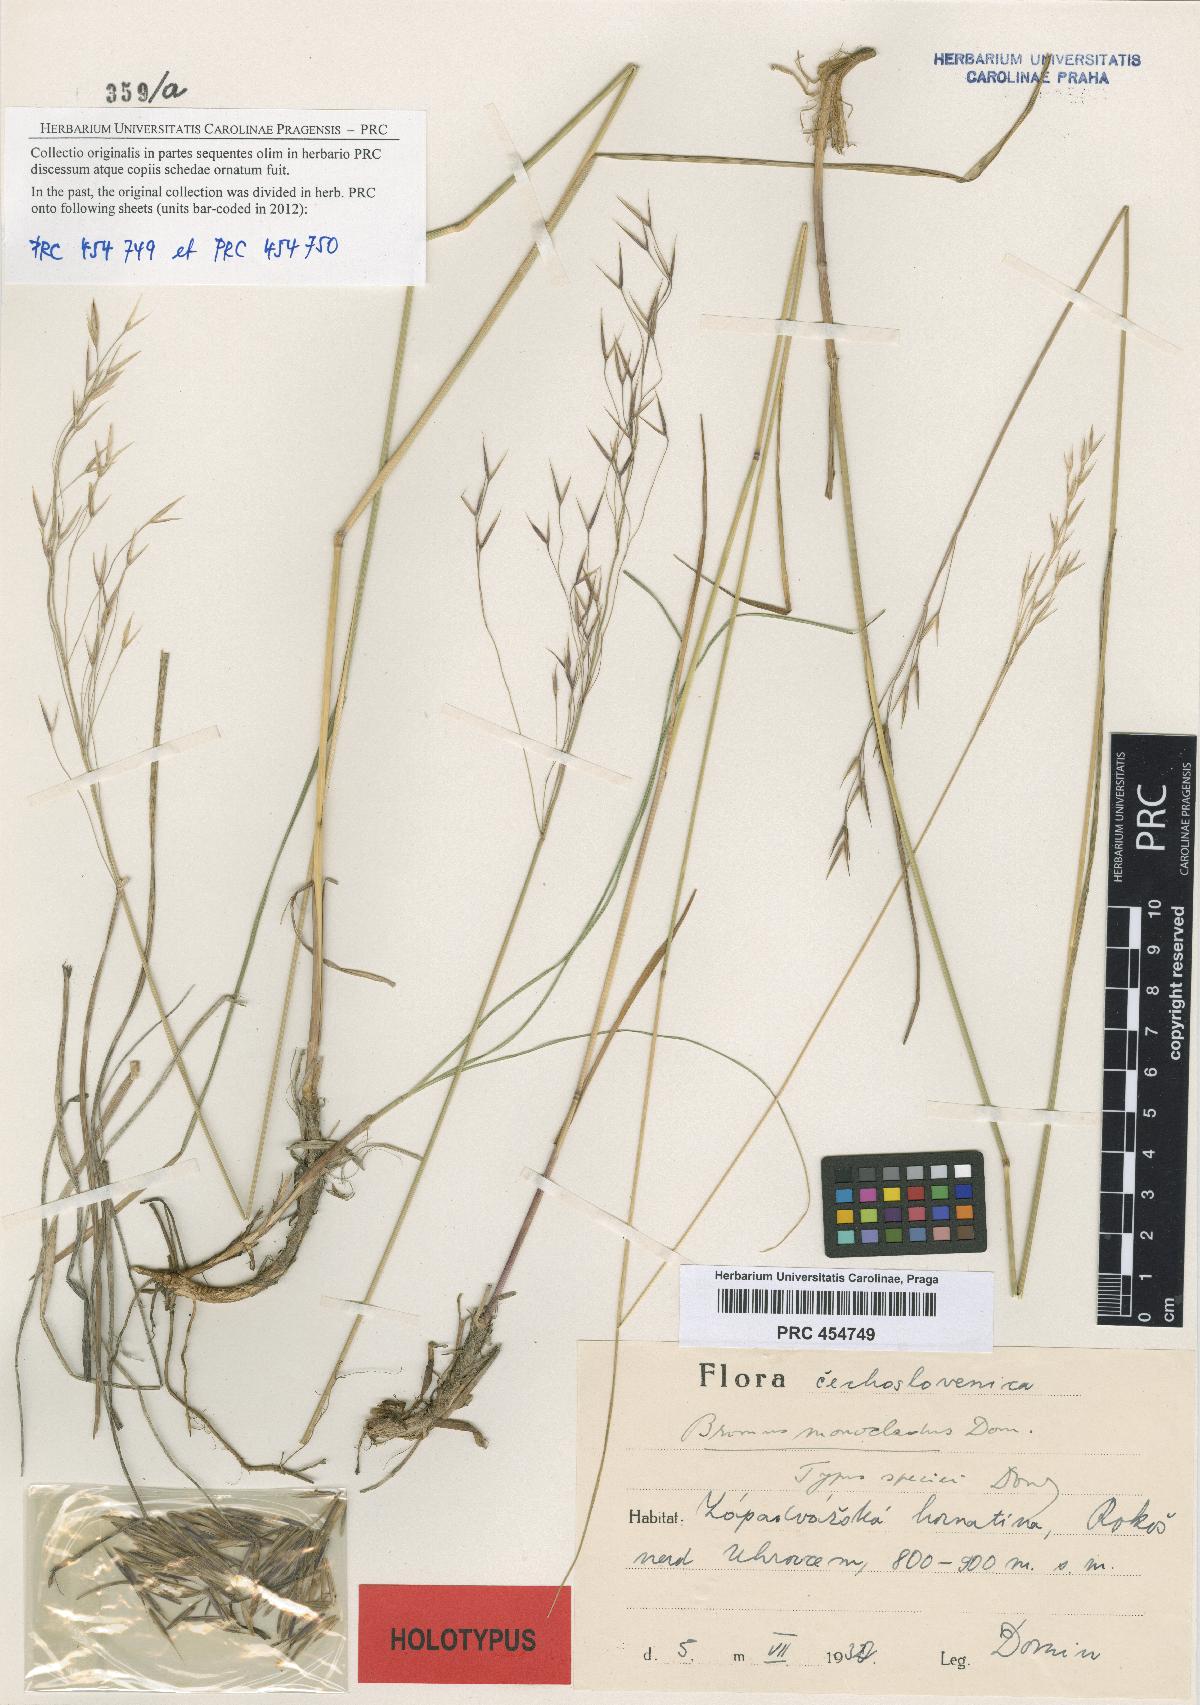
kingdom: Plantae
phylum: Tracheophyta
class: Liliopsida
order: Poales
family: Poaceae
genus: Bromus
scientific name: Bromus pannonicus
